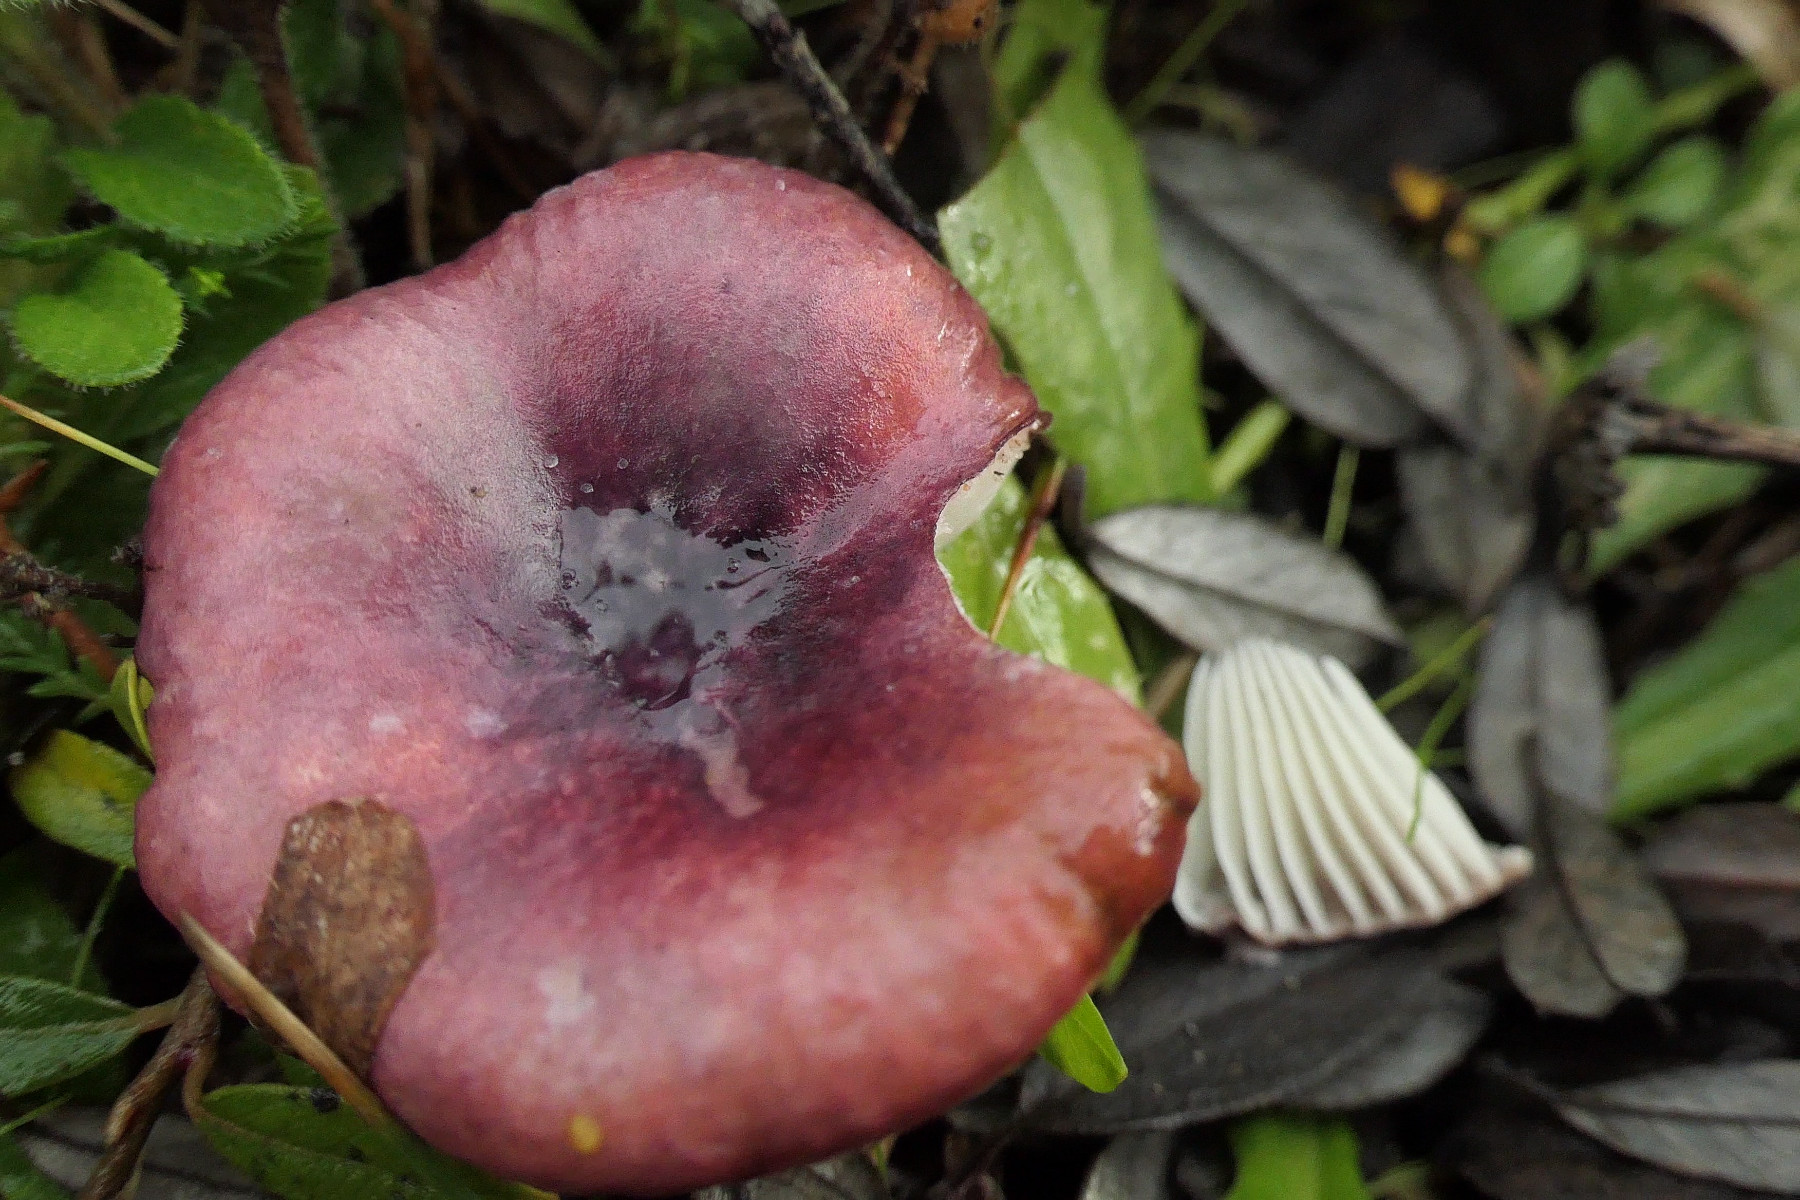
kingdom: Fungi
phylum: Basidiomycota
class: Agaricomycetes
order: Russulales
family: Russulaceae
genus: Russula
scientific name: Russula laccata
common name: klit-skørhat
